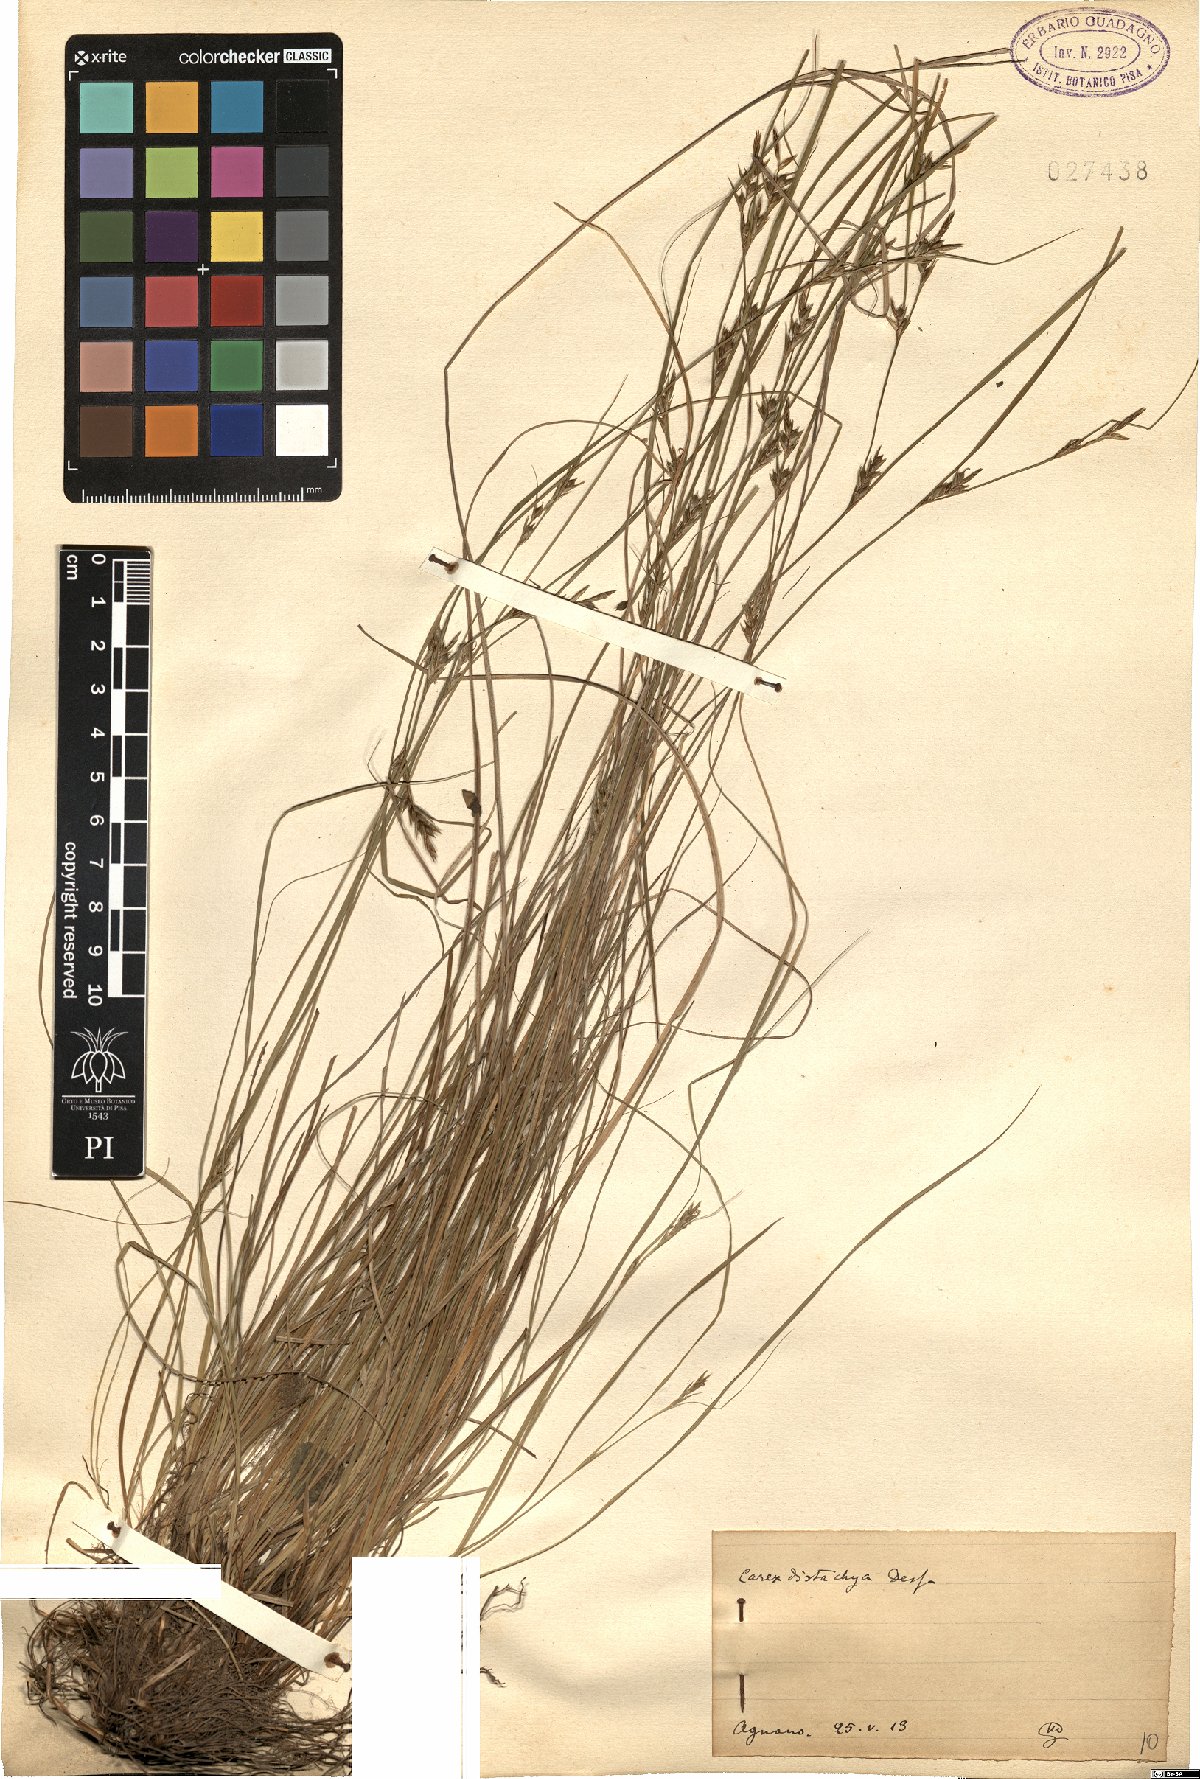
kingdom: Plantae
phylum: Tracheophyta
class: Liliopsida
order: Poales
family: Cyperaceae
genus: Carex
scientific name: Carex distachya
